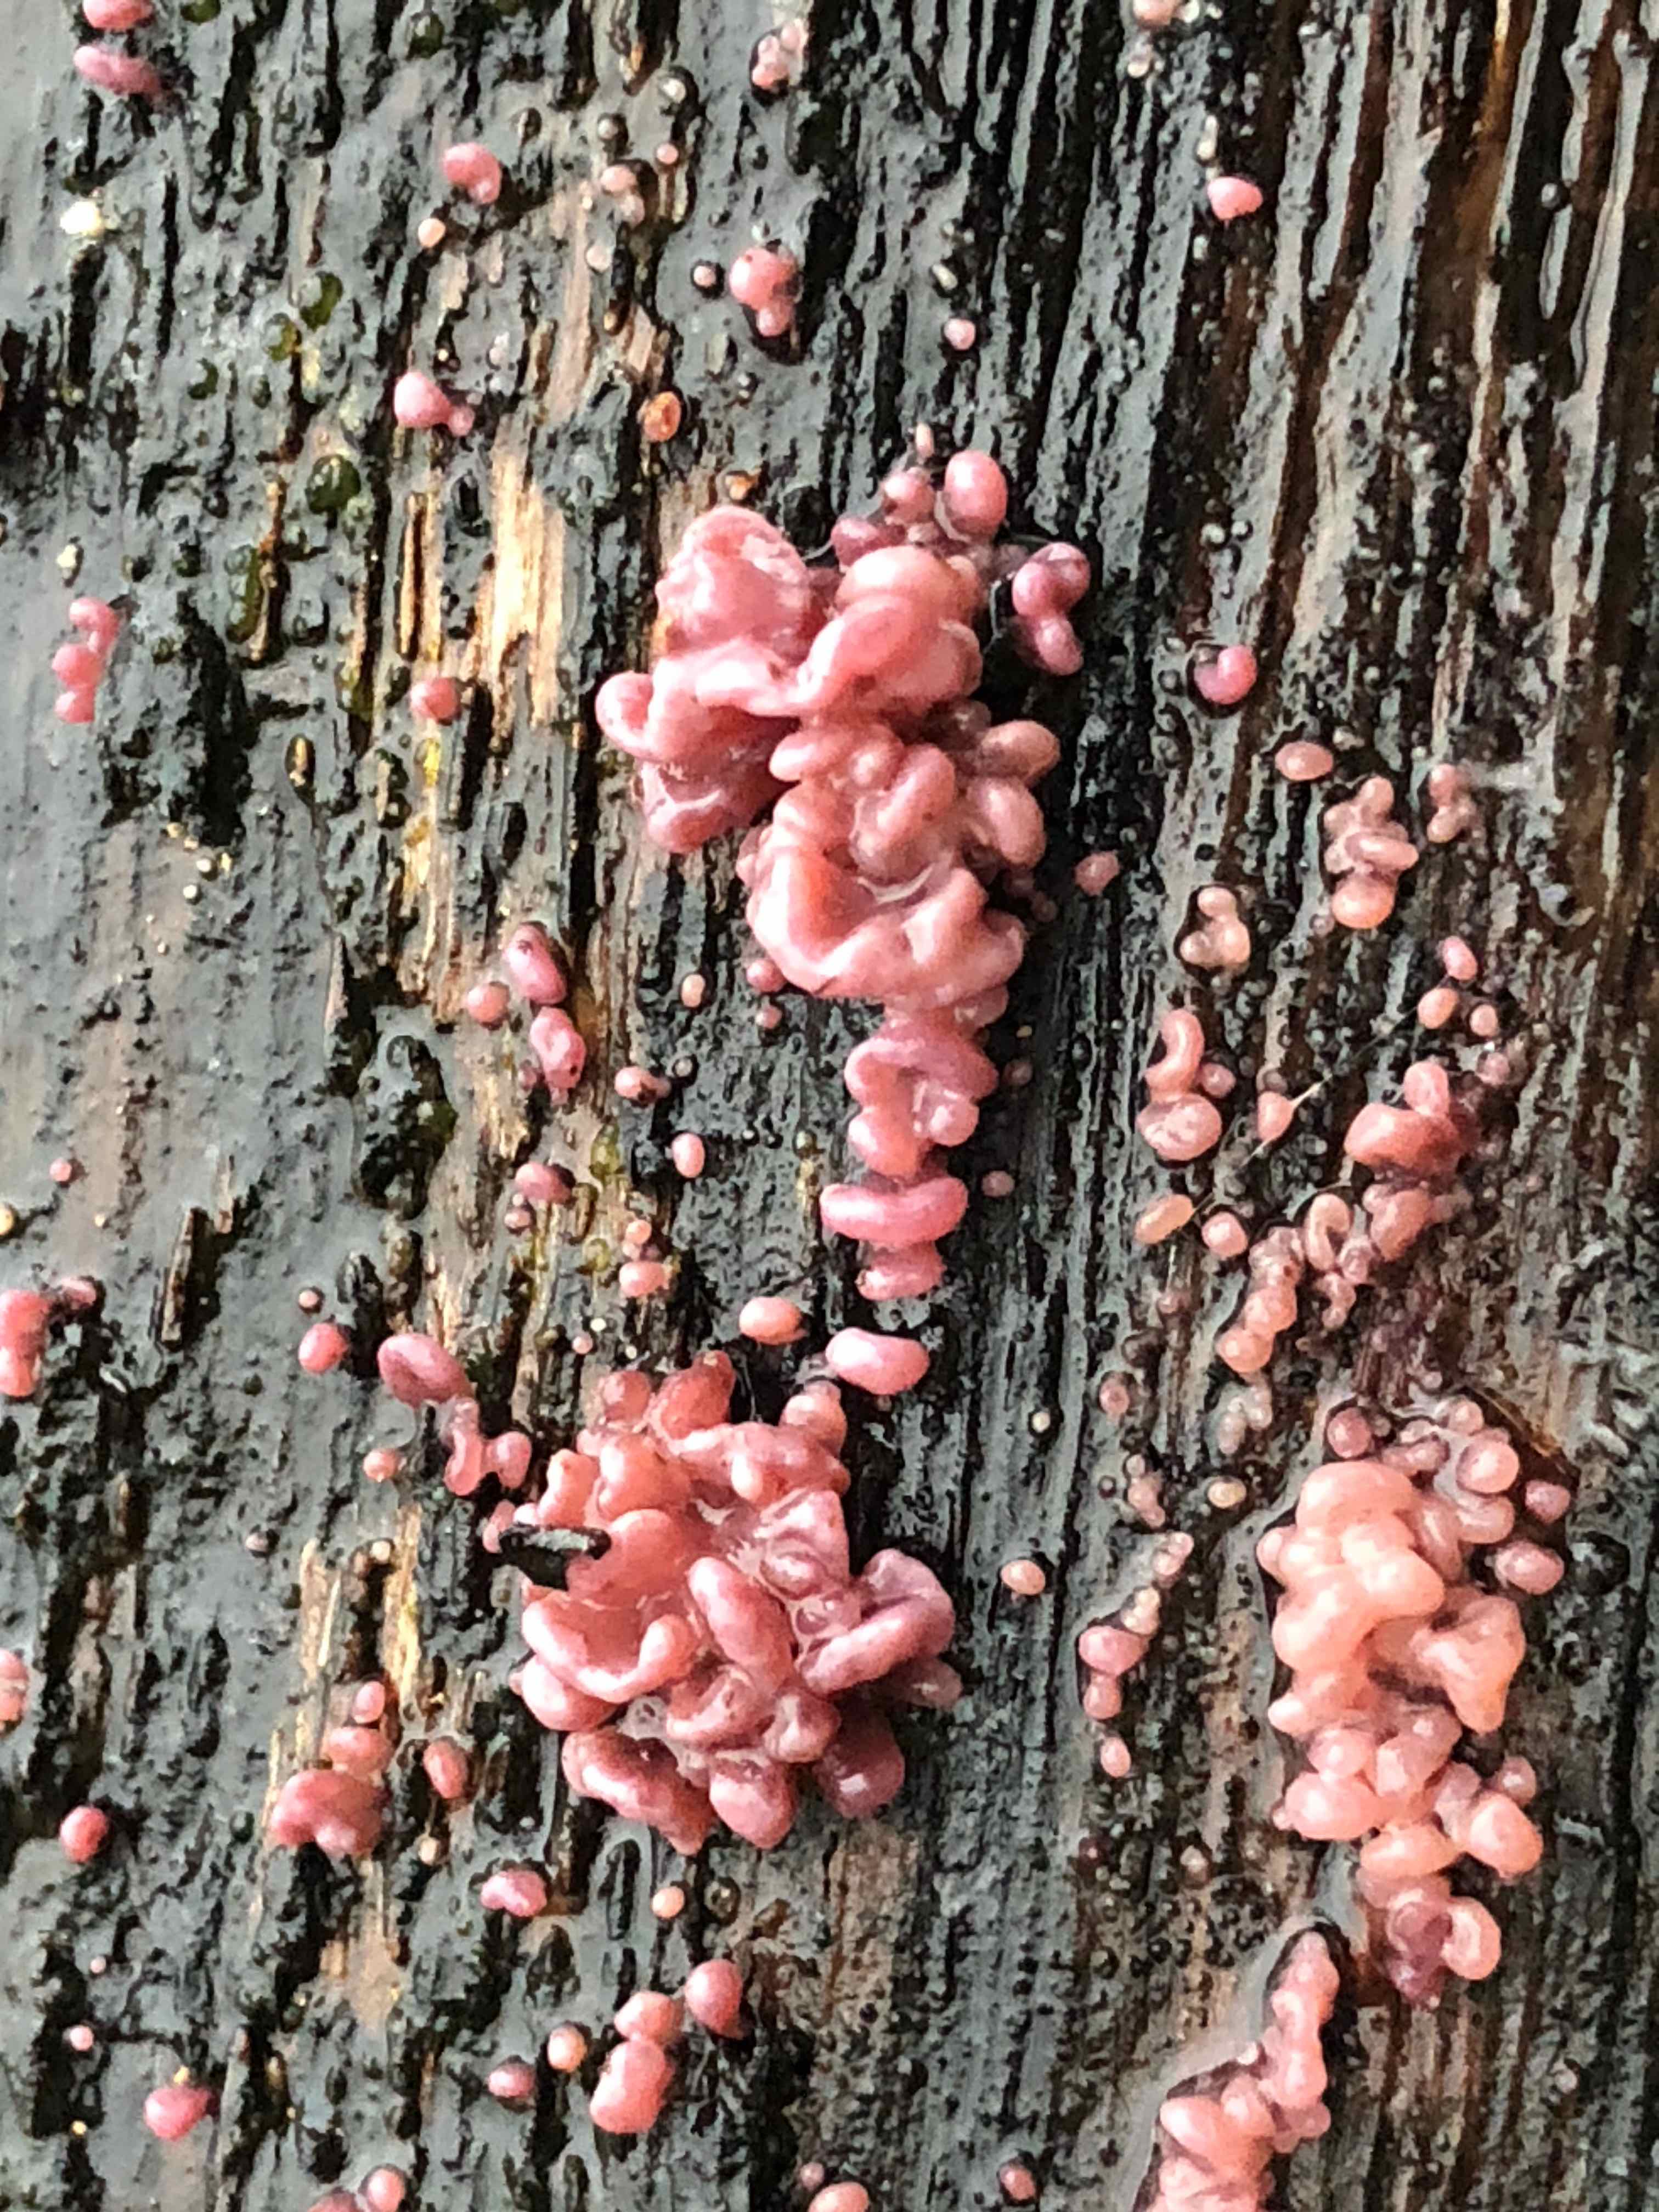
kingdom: Fungi
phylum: Ascomycota
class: Leotiomycetes
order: Helotiales
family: Gelatinodiscaceae
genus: Ascocoryne
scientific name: Ascocoryne sarcoides
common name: rødlilla sejskive
